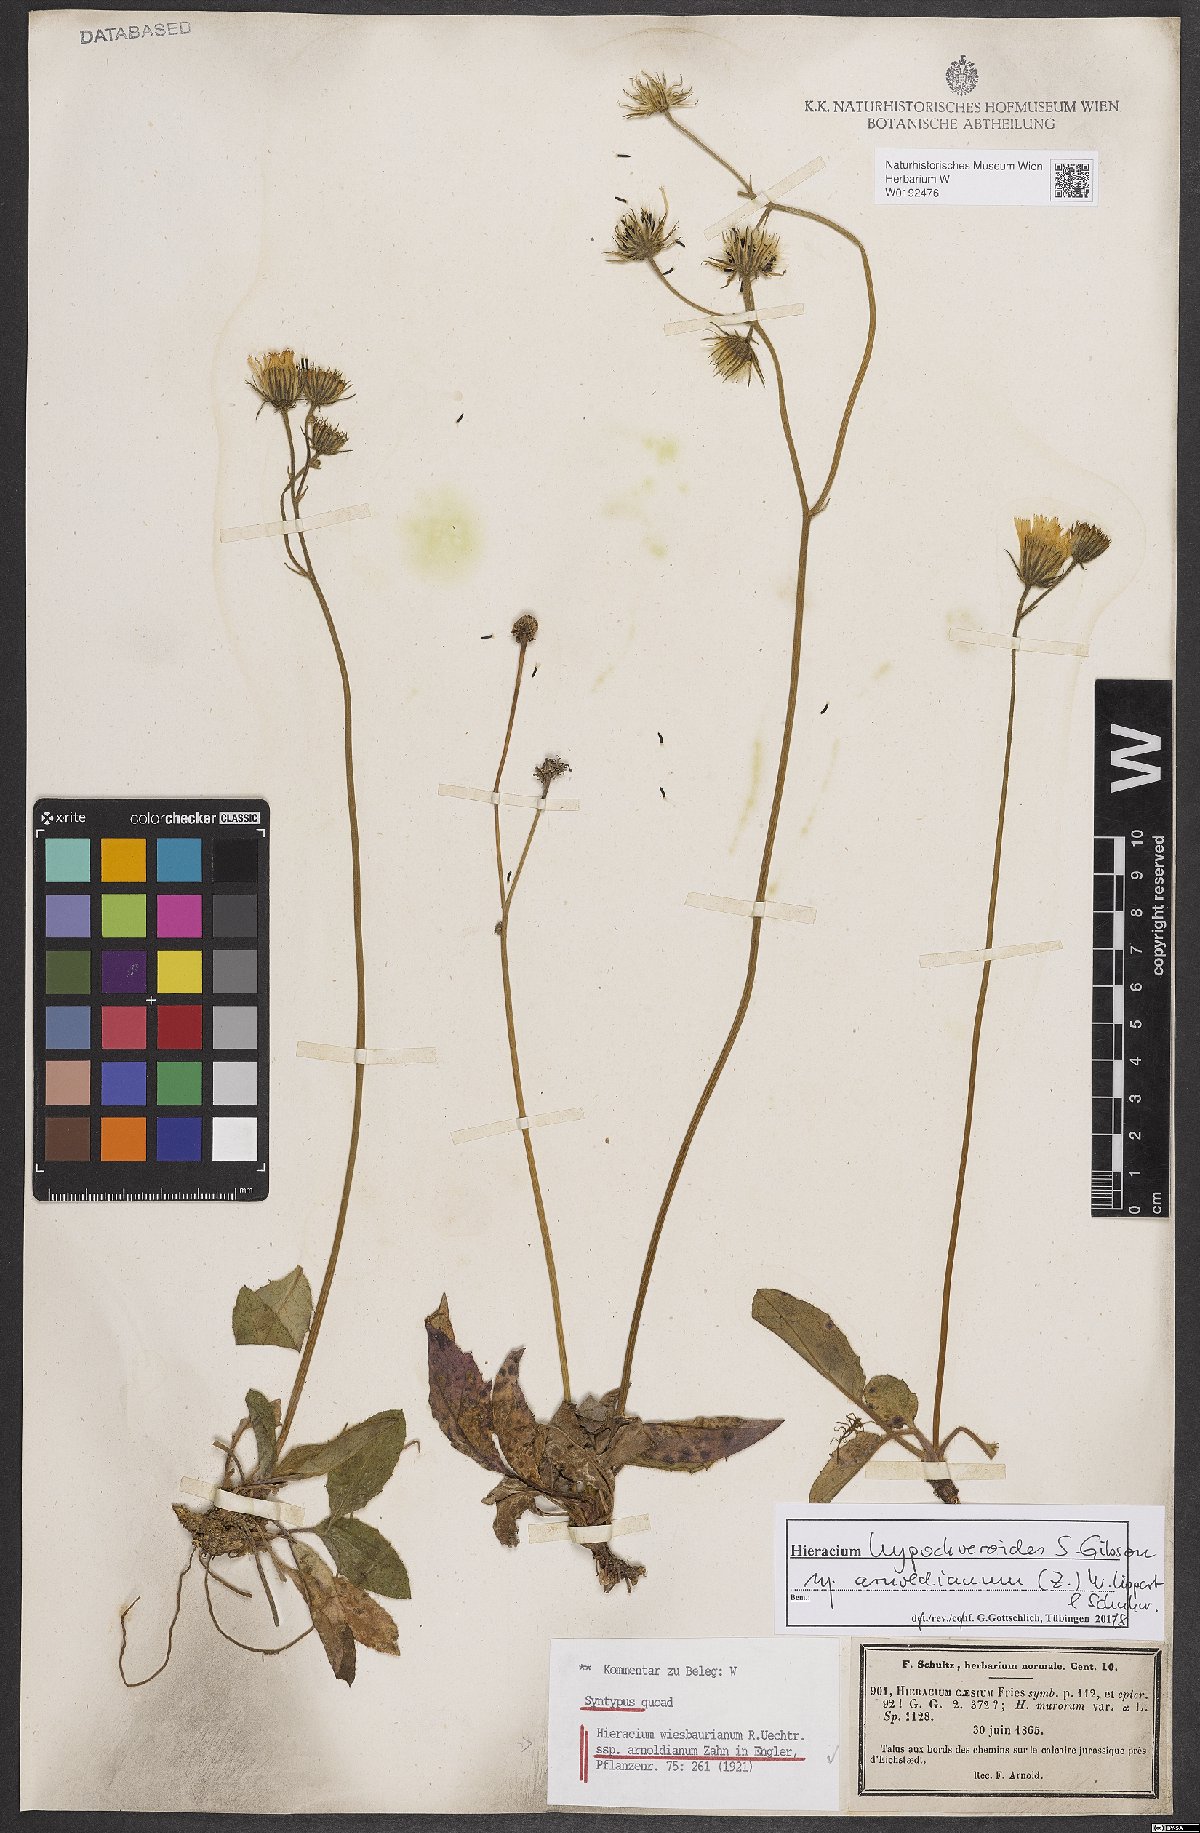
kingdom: Plantae
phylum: Tracheophyta
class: Magnoliopsida
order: Asterales
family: Asteraceae
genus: Hieracium
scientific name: Hieracium hypochoeroides
